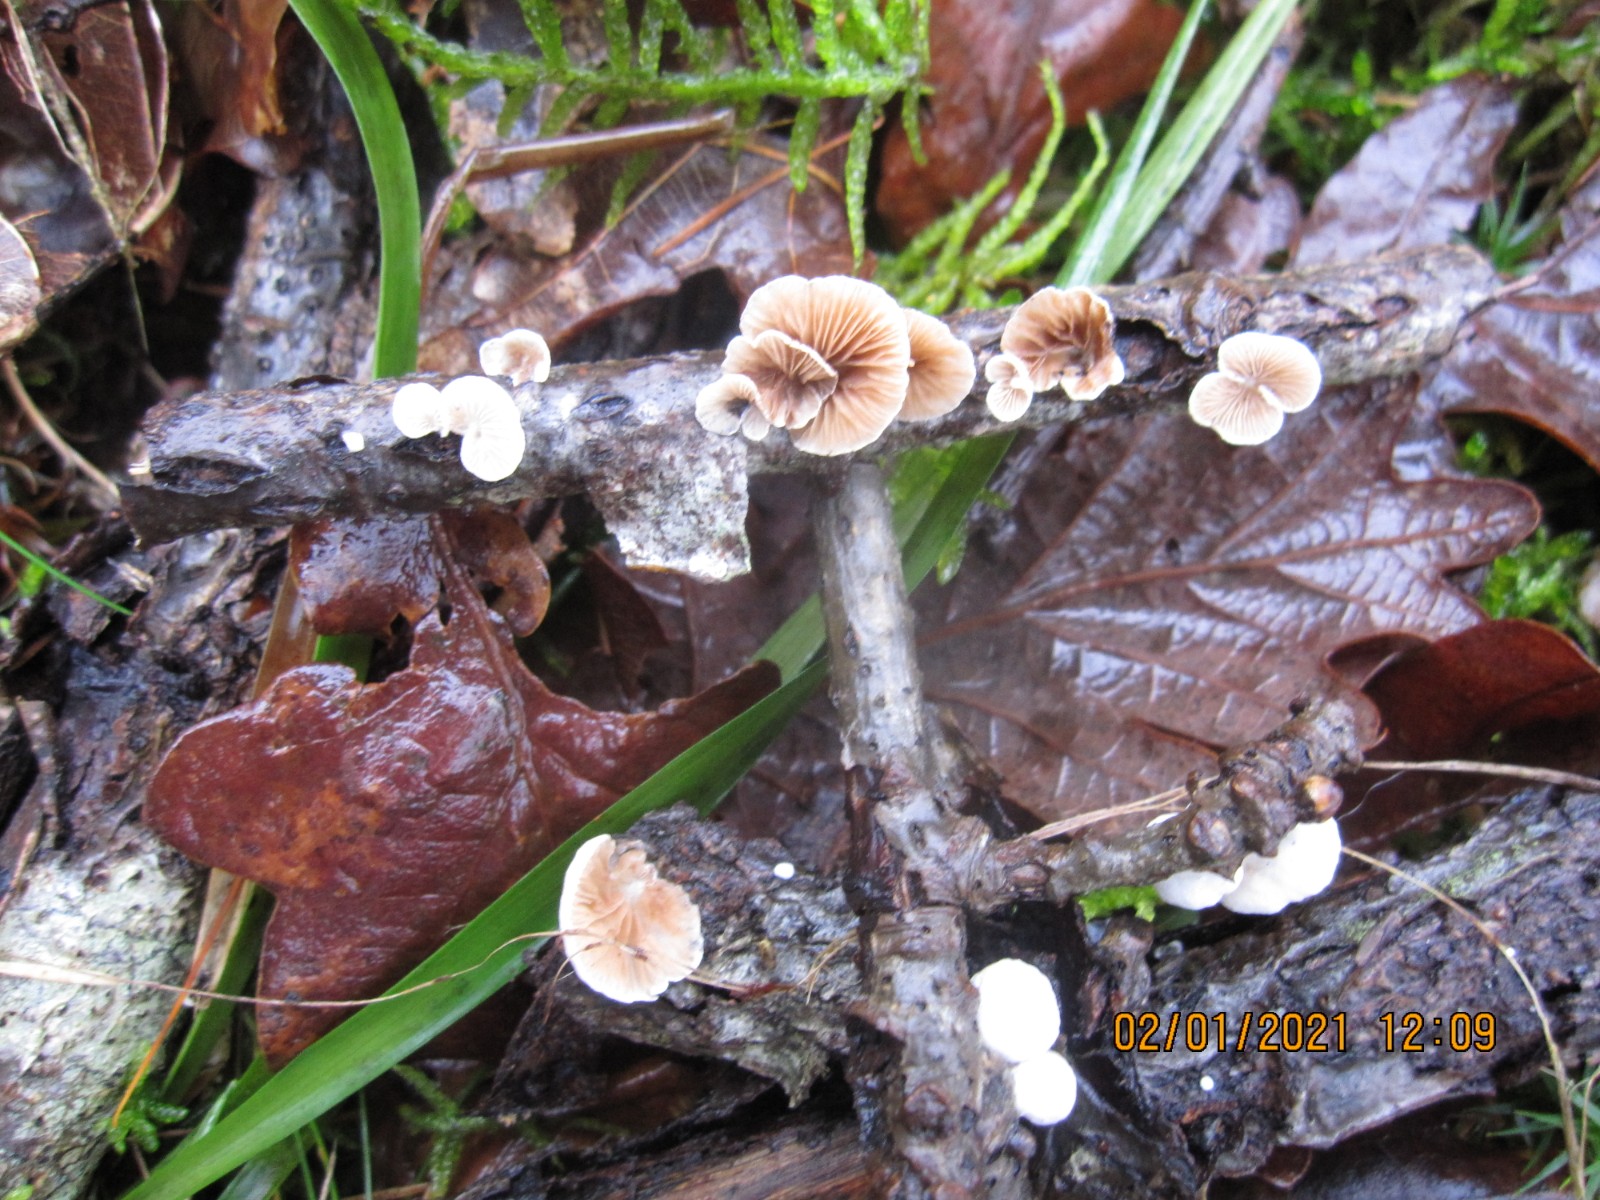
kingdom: Fungi
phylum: Basidiomycota
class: Agaricomycetes
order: Agaricales
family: Crepidotaceae
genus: Crepidotus
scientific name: Crepidotus variabilis
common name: forskelligformet muslingesvamp
